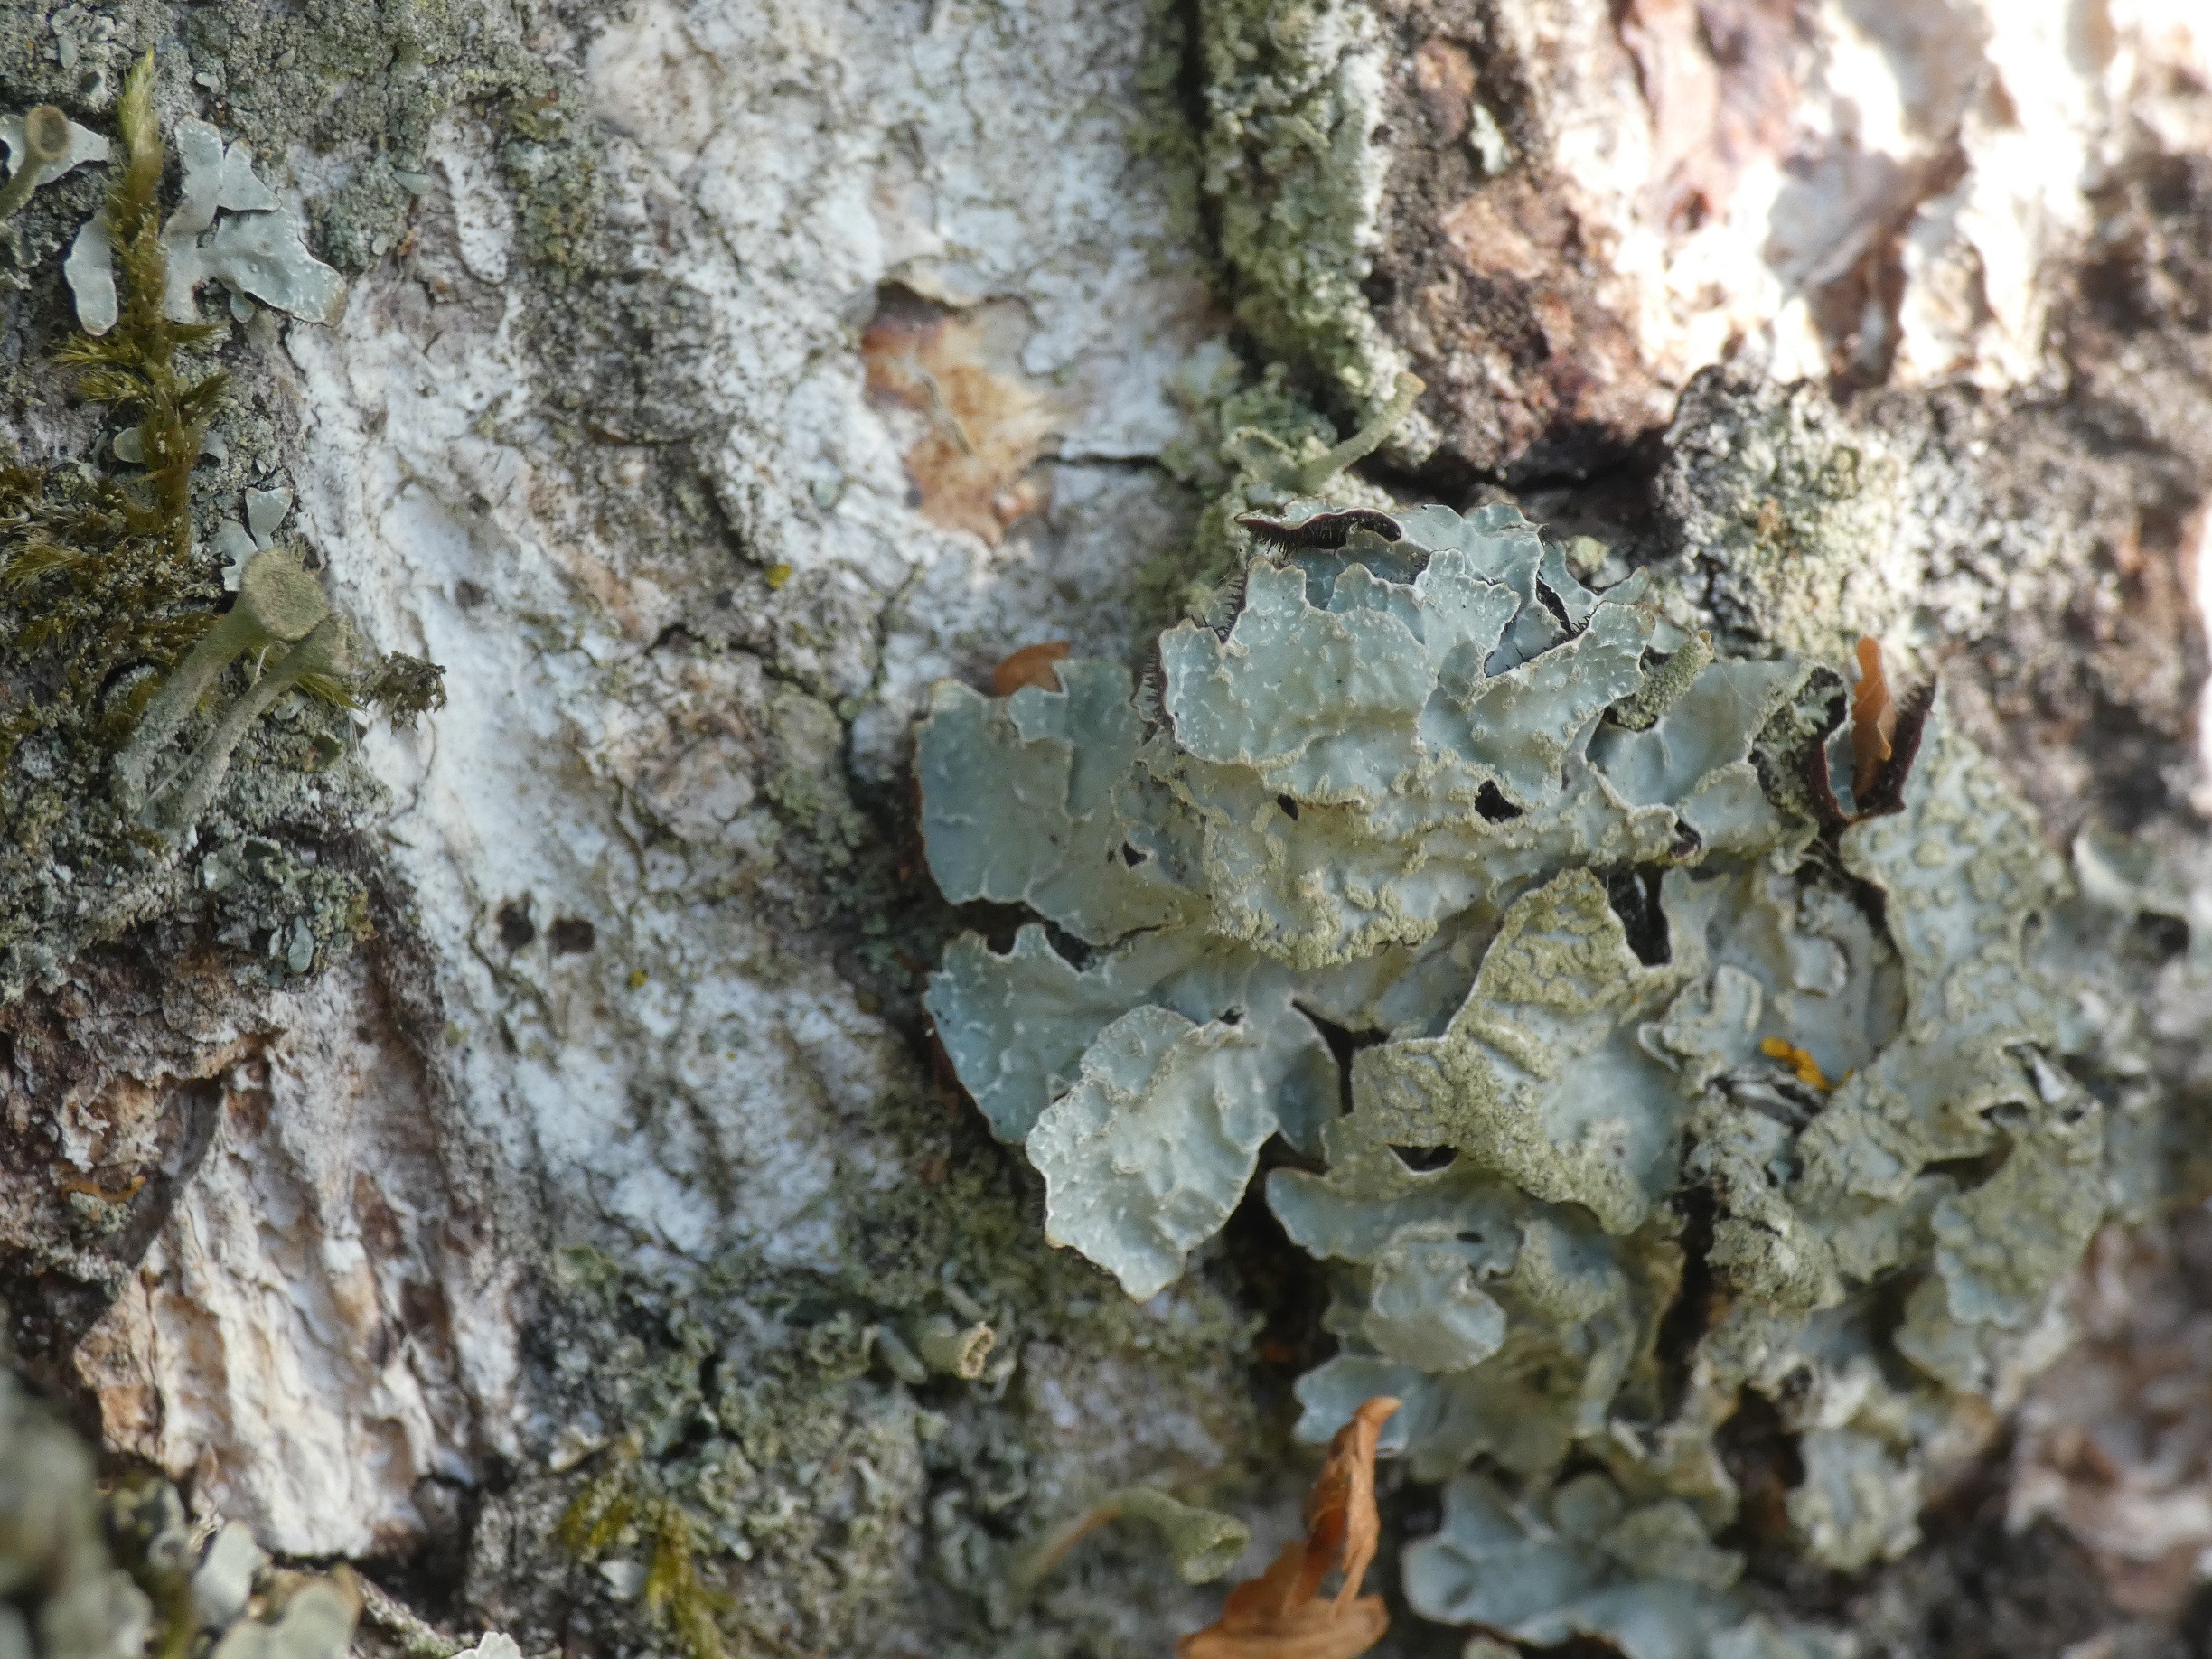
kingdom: Fungi
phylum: Ascomycota
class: Lecanoromycetes
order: Lecanorales
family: Parmeliaceae
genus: Parmelia
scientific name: Parmelia sulcata
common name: Rynket skållav
